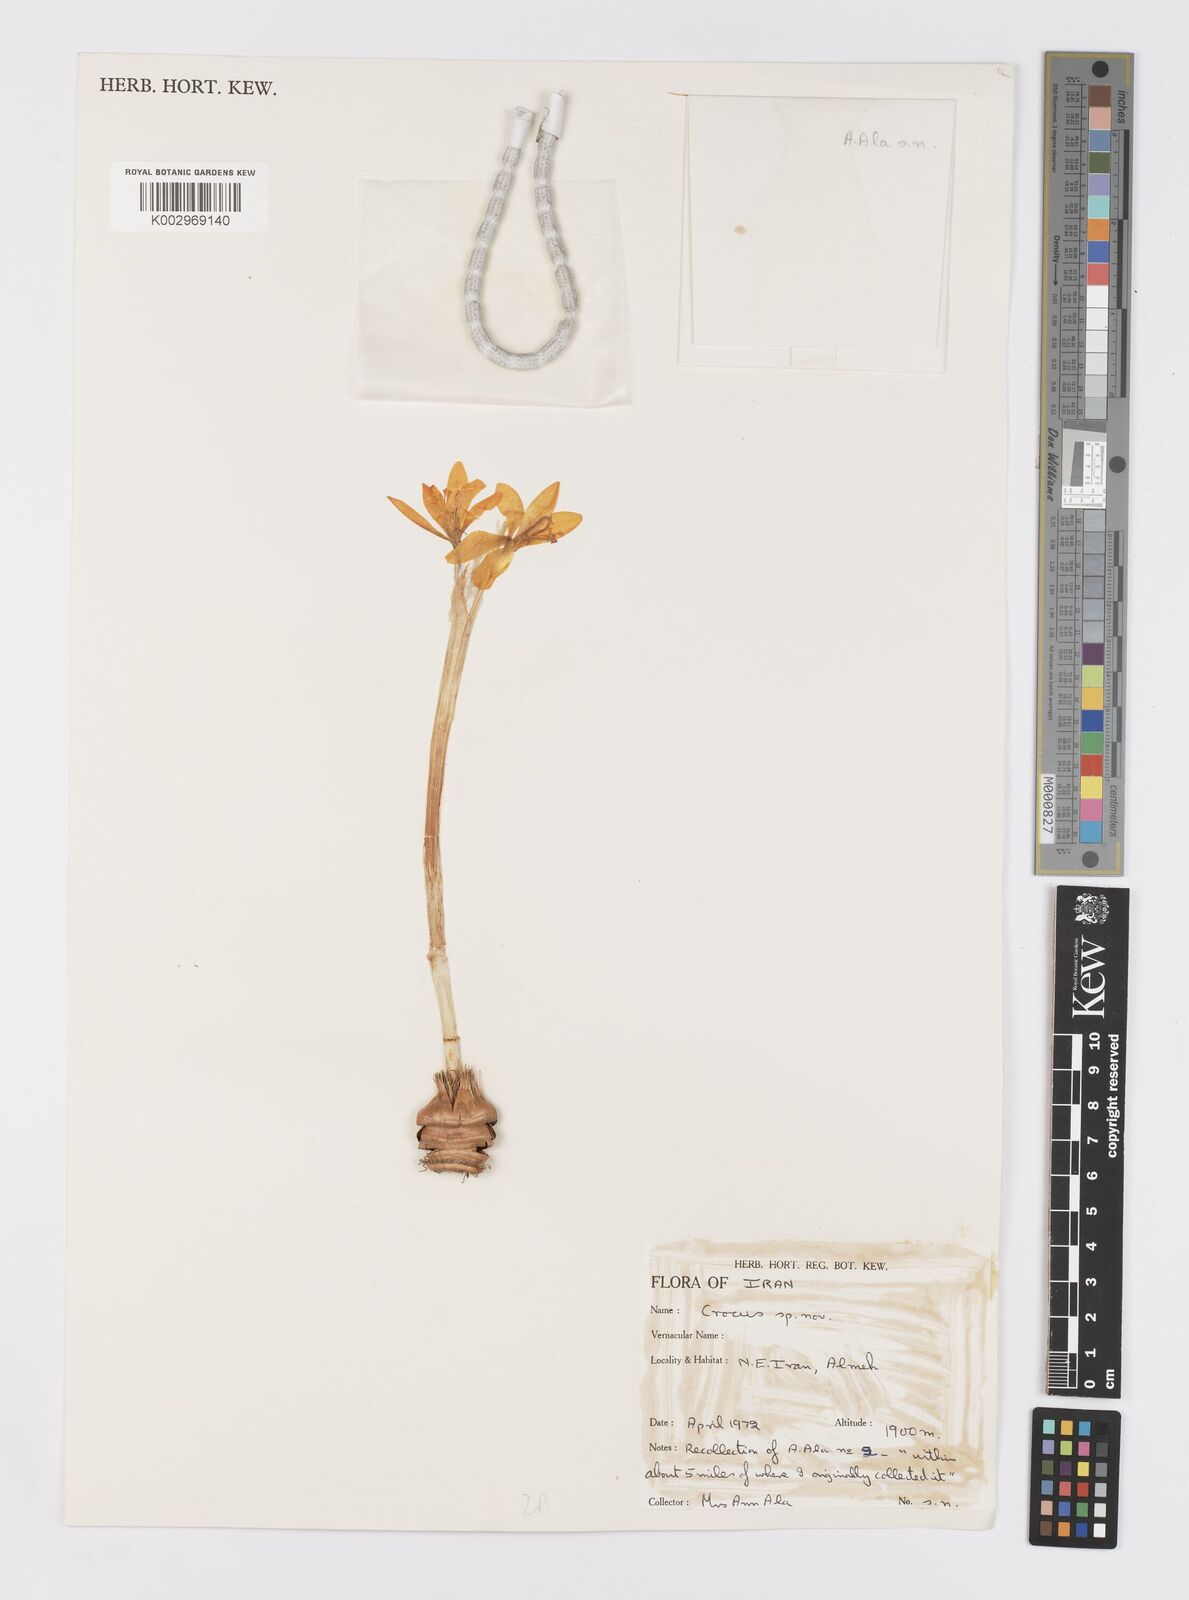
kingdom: Plantae
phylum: Tracheophyta
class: Liliopsida
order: Asparagales
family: Iridaceae
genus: Crocus
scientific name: Crocus almehensis
